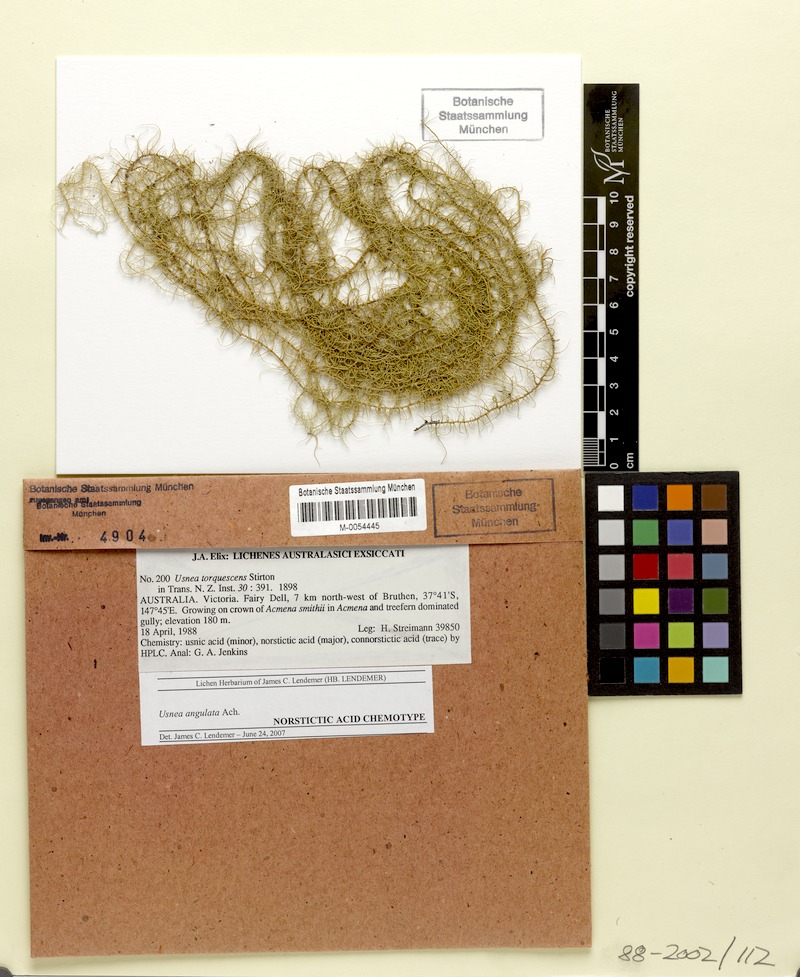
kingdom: Fungi
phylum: Ascomycota
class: Lecanoromycetes
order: Lecanorales
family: Parmeliaceae
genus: Usnea
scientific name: Usnea angulata
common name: Old-man’s beard lichen
